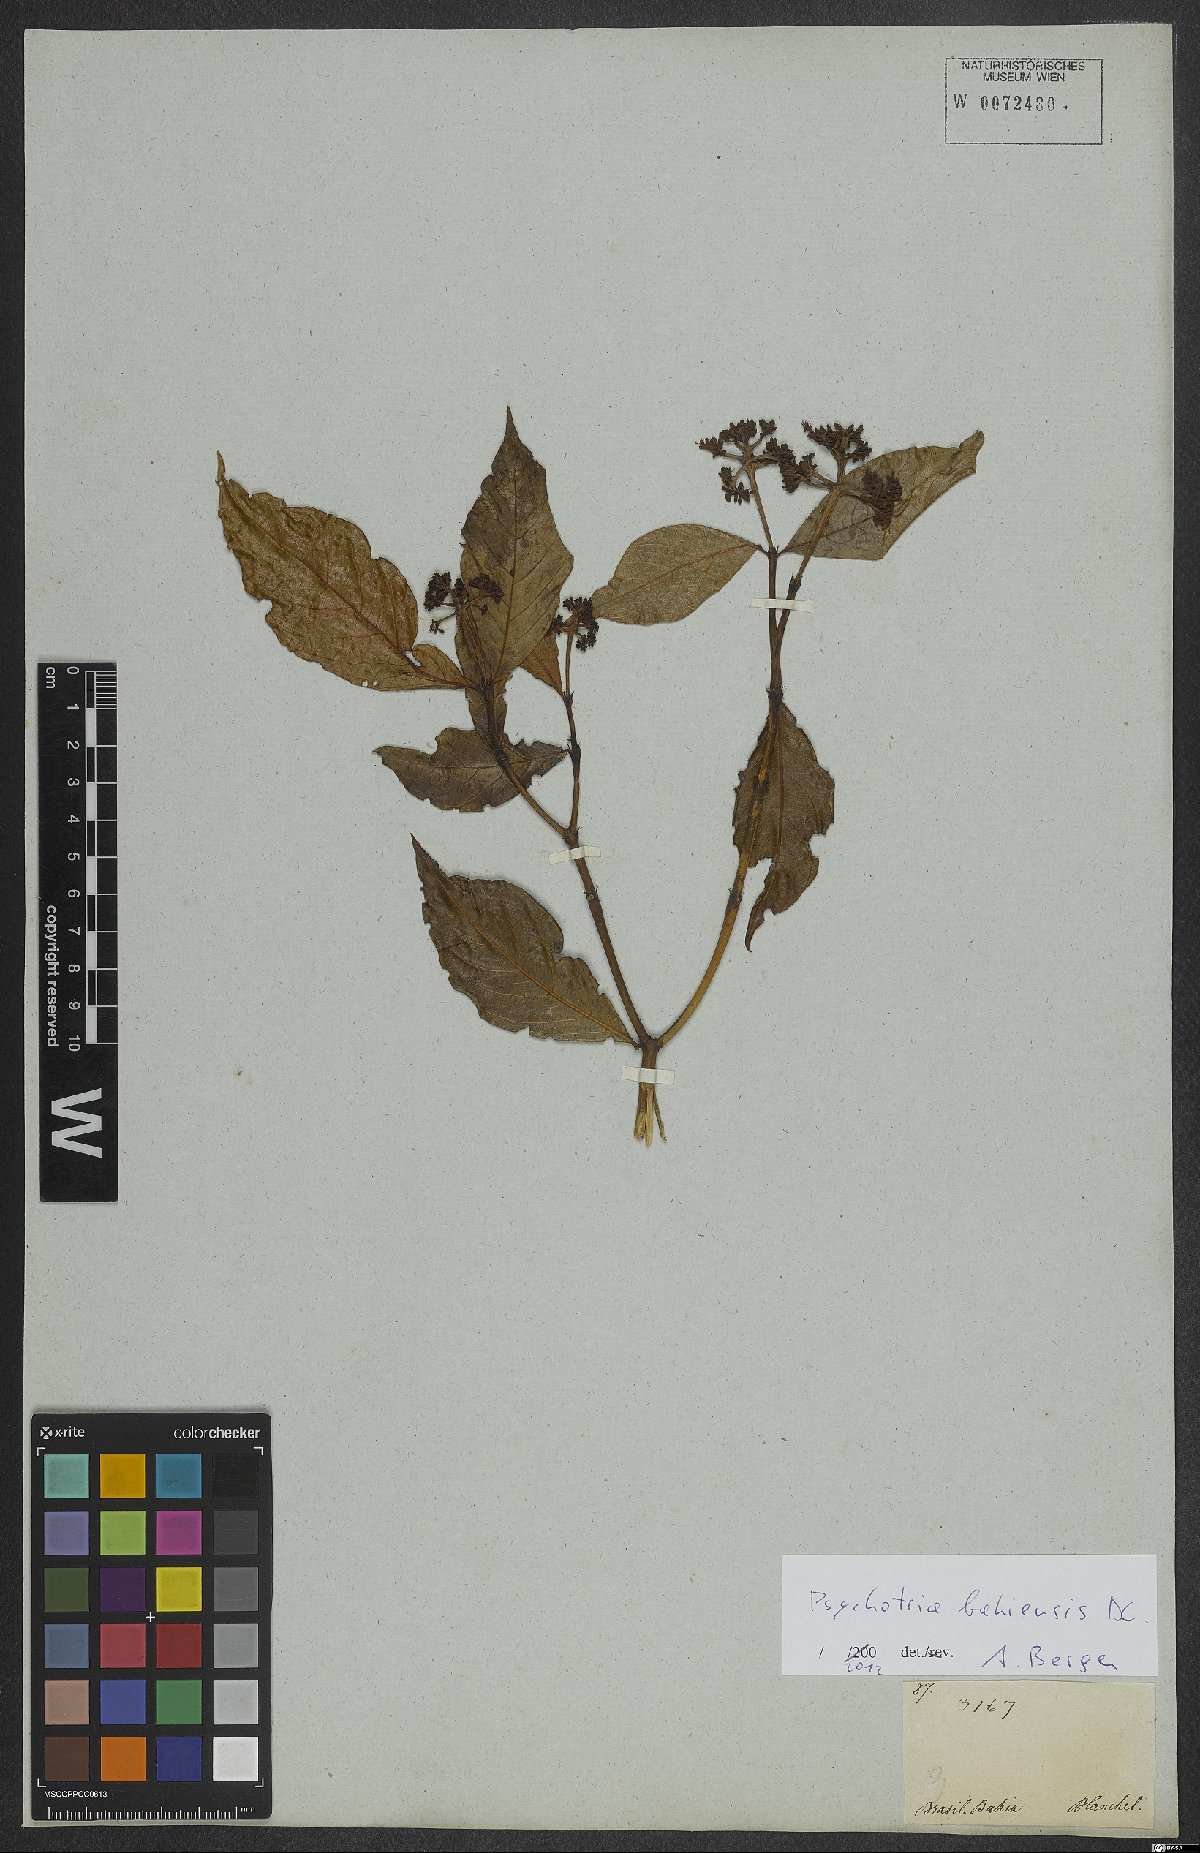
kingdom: Plantae
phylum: Tracheophyta
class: Magnoliopsida
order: Gentianales
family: Rubiaceae
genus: Psychotria
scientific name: Psychotria bahiensis
